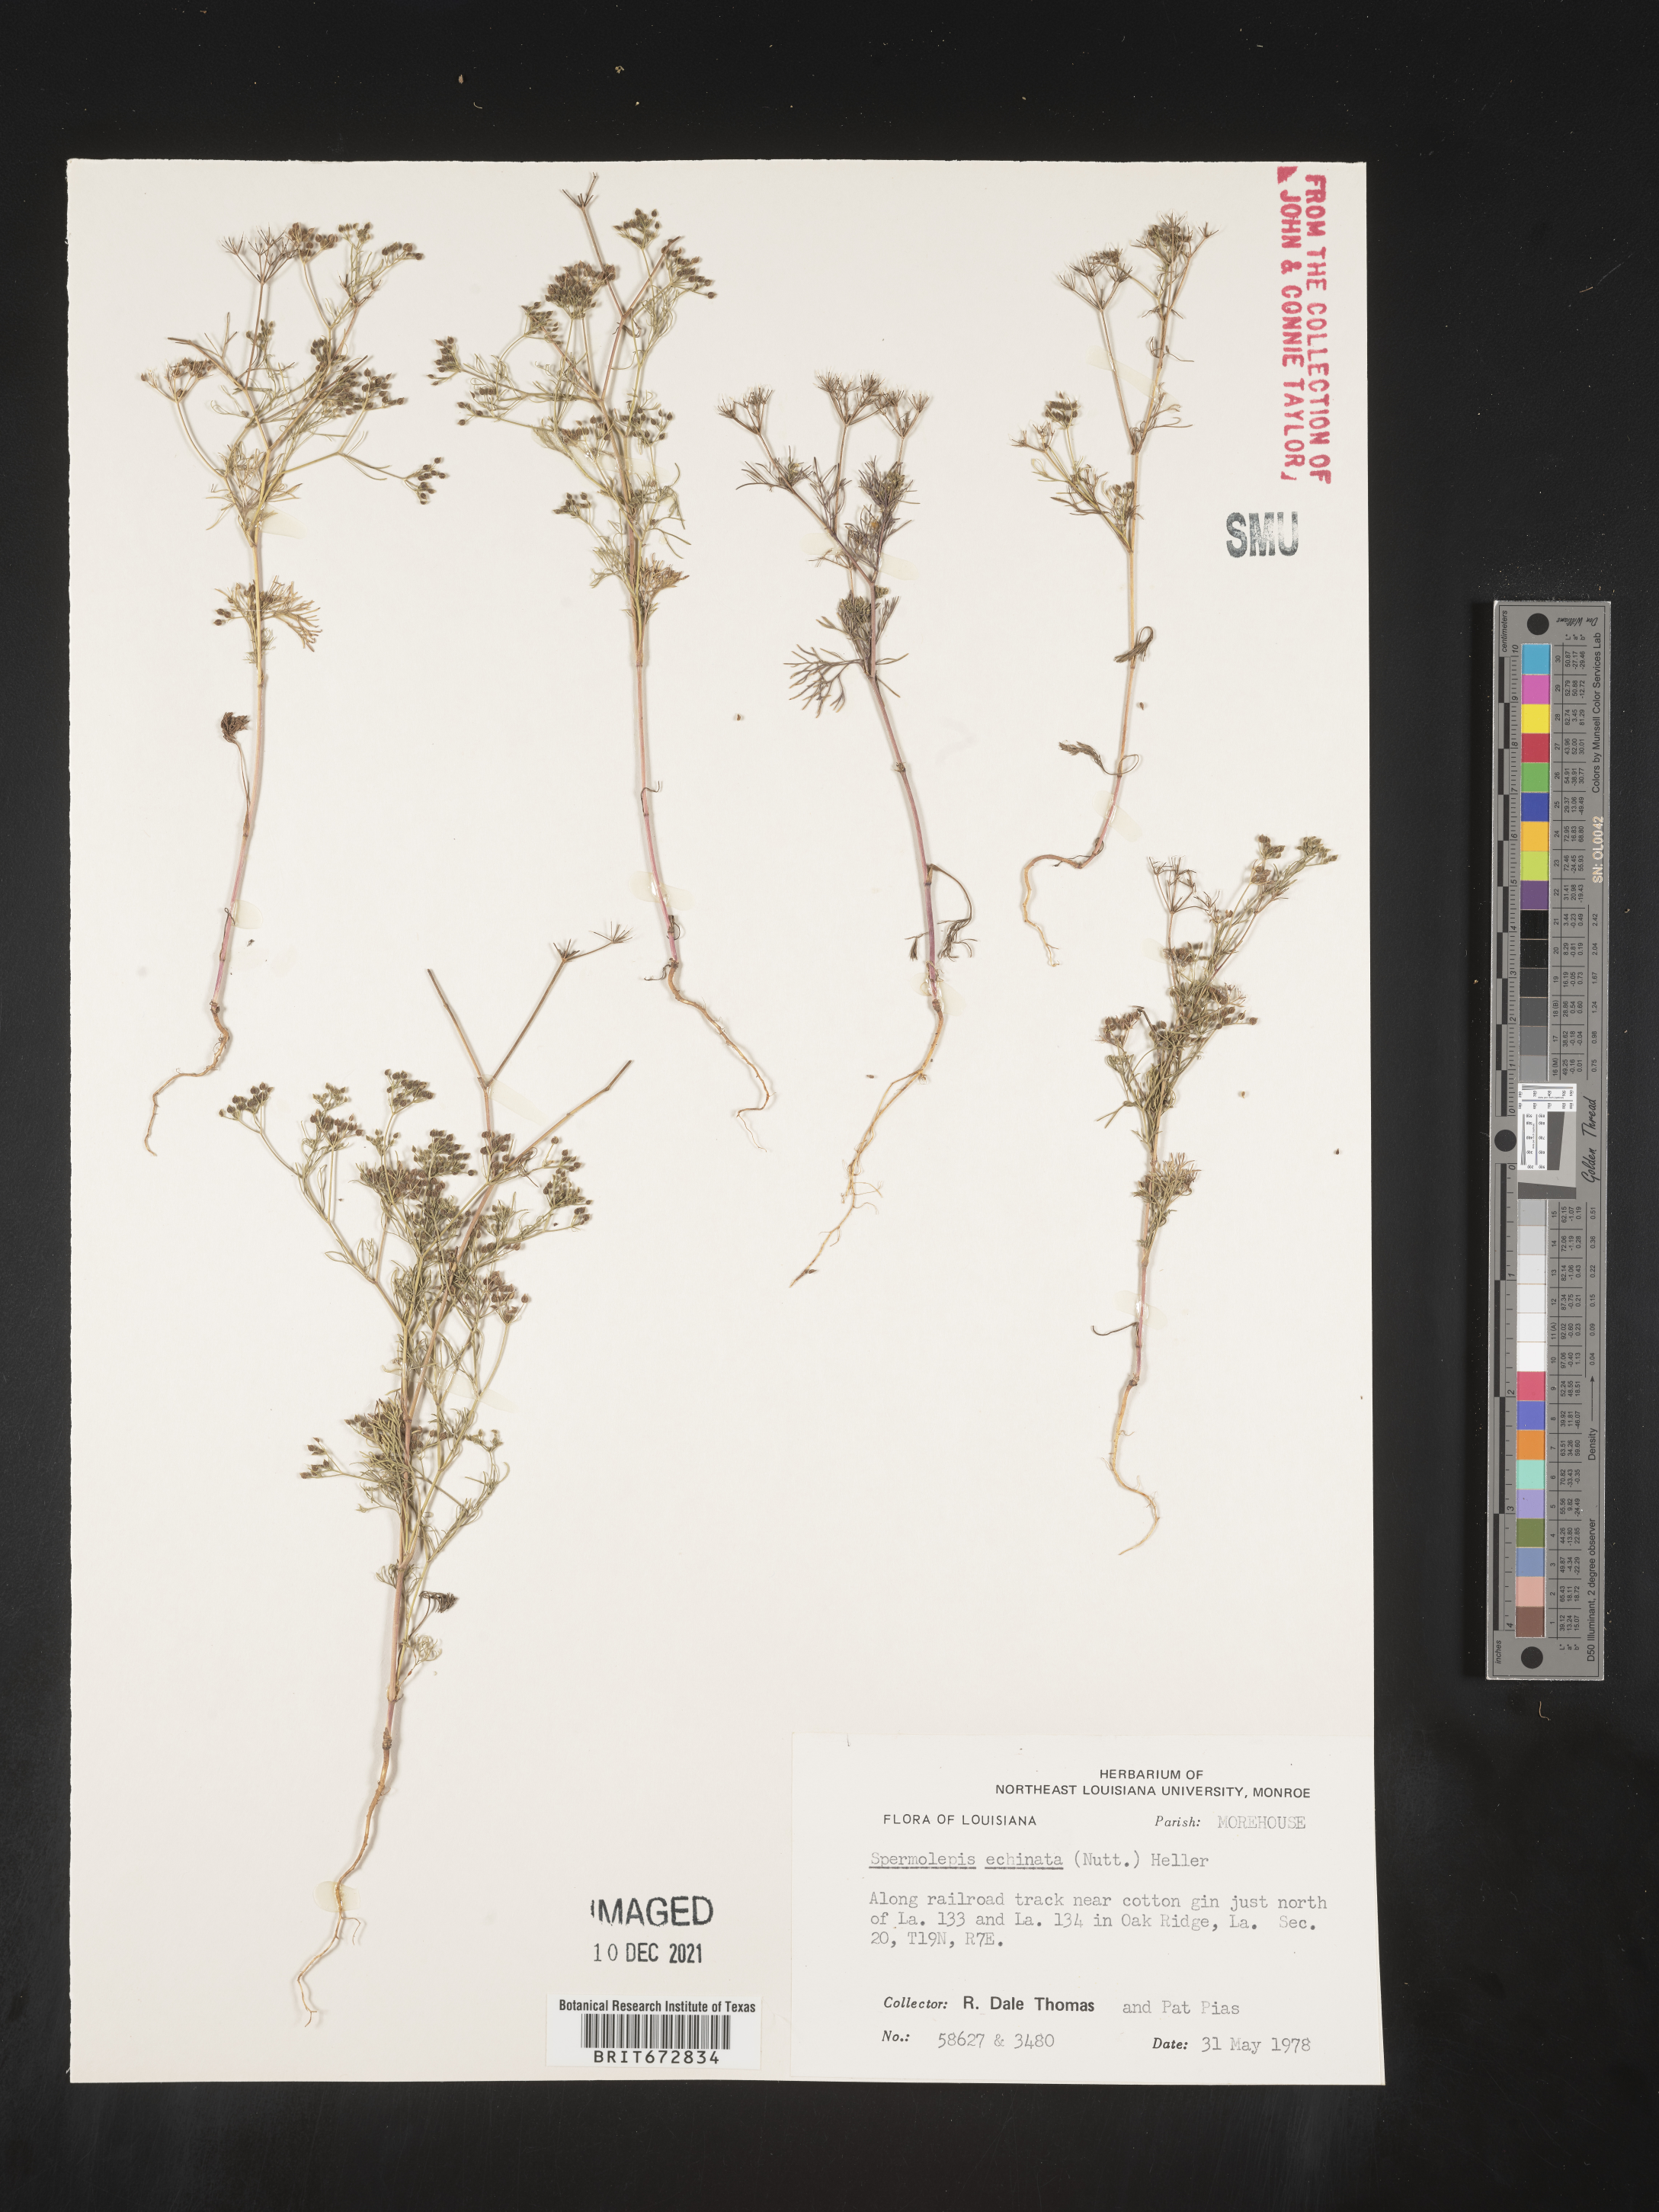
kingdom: Plantae
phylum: Tracheophyta
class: Magnoliopsida
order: Apiales
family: Apiaceae
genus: Spermolepis
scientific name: Spermolepis echinata
